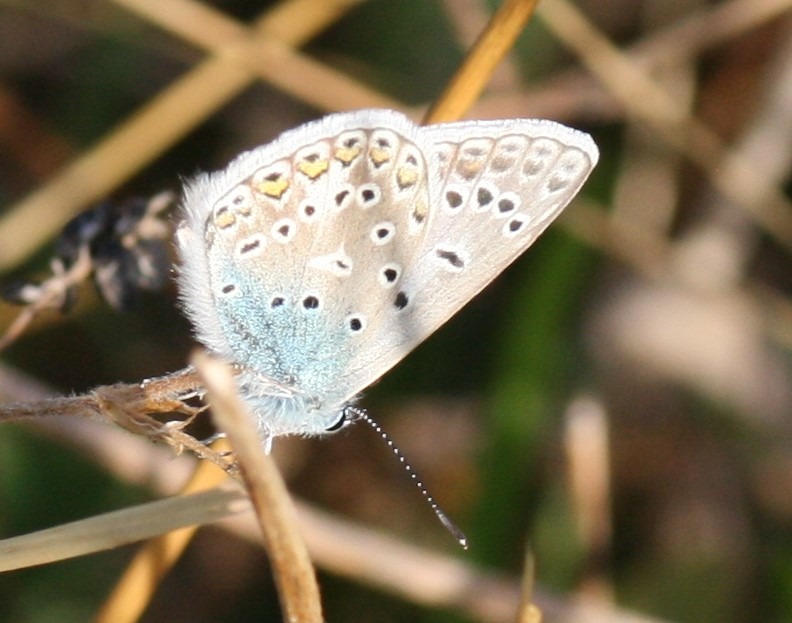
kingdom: Animalia
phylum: Arthropoda
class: Insecta
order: Lepidoptera
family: Lycaenidae
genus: Polyommatus
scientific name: Polyommatus icarus
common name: Almindelig blåfugl
